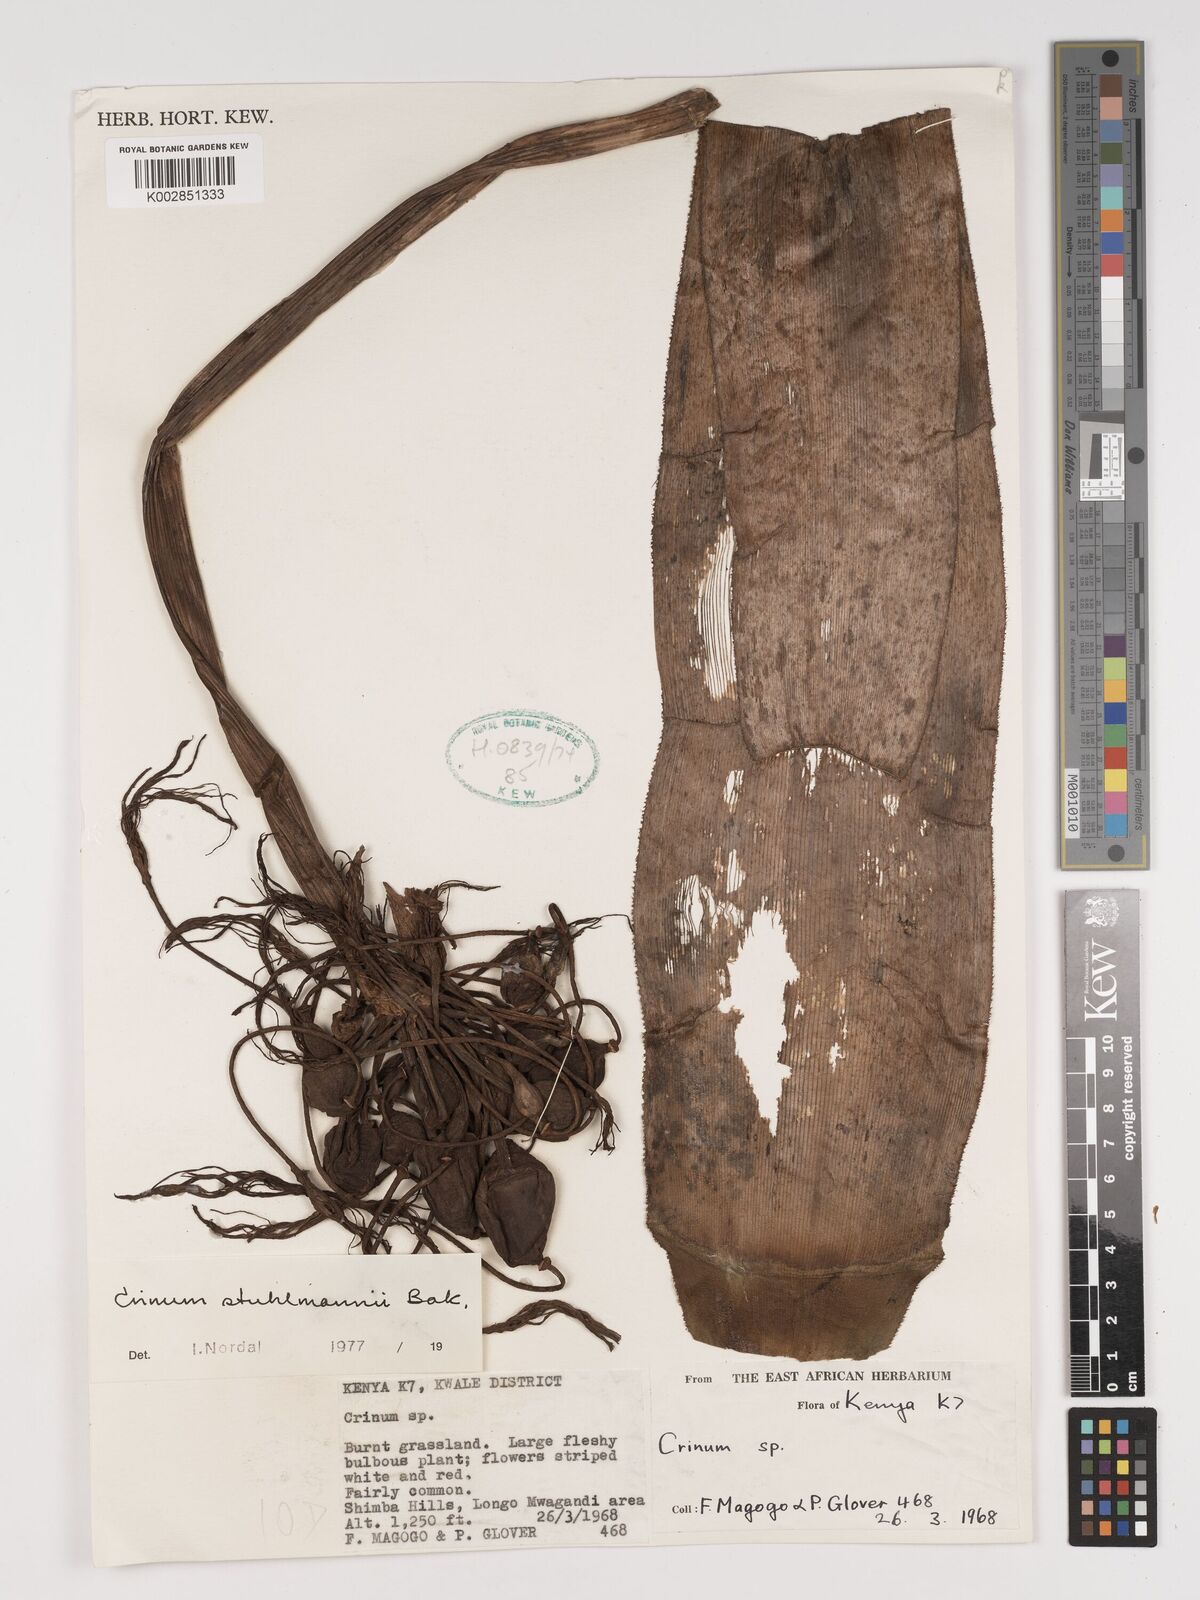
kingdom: Plantae
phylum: Tracheophyta
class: Liliopsida
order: Asparagales
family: Amaryllidaceae
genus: Crinum
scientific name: Crinum stuhlmannii
